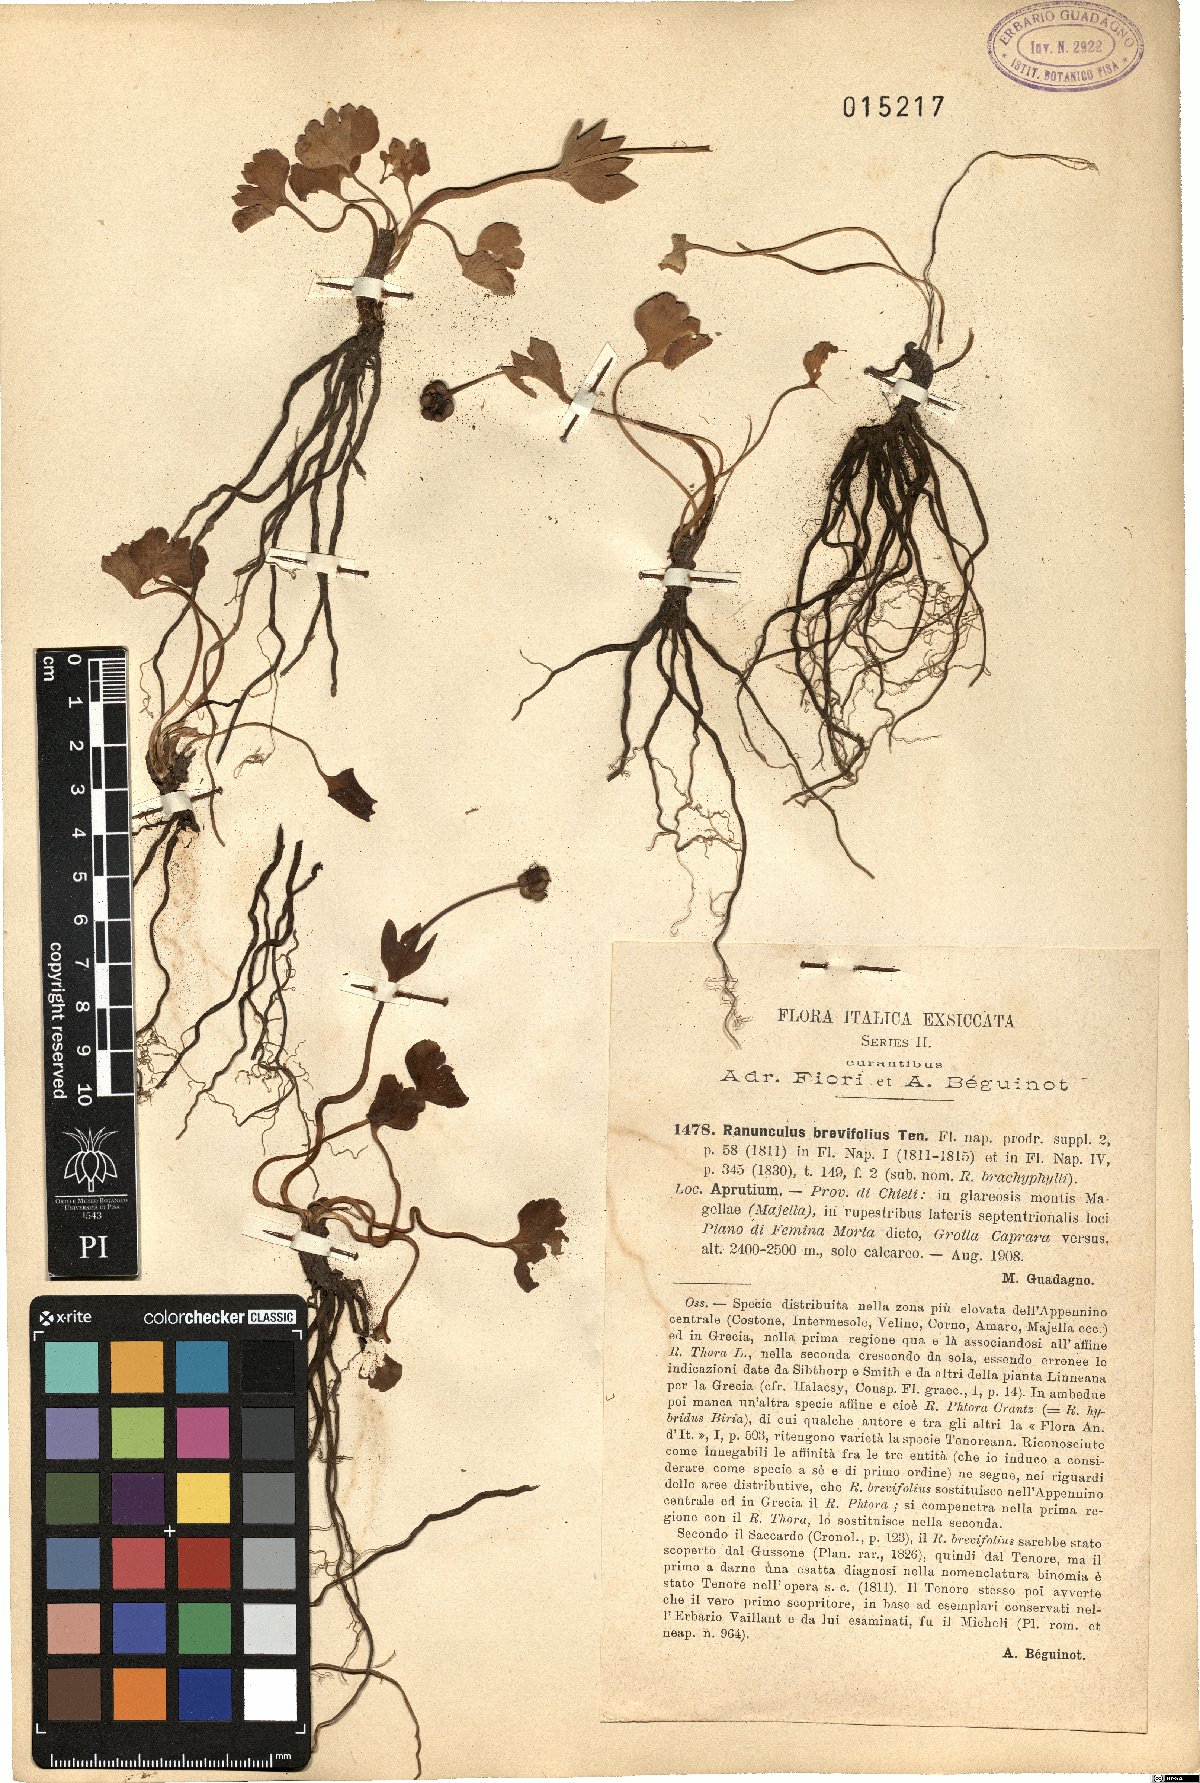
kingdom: Plantae
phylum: Tracheophyta
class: Magnoliopsida
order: Ranunculales
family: Ranunculaceae
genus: Ranunculus
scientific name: Ranunculus brevifolius
